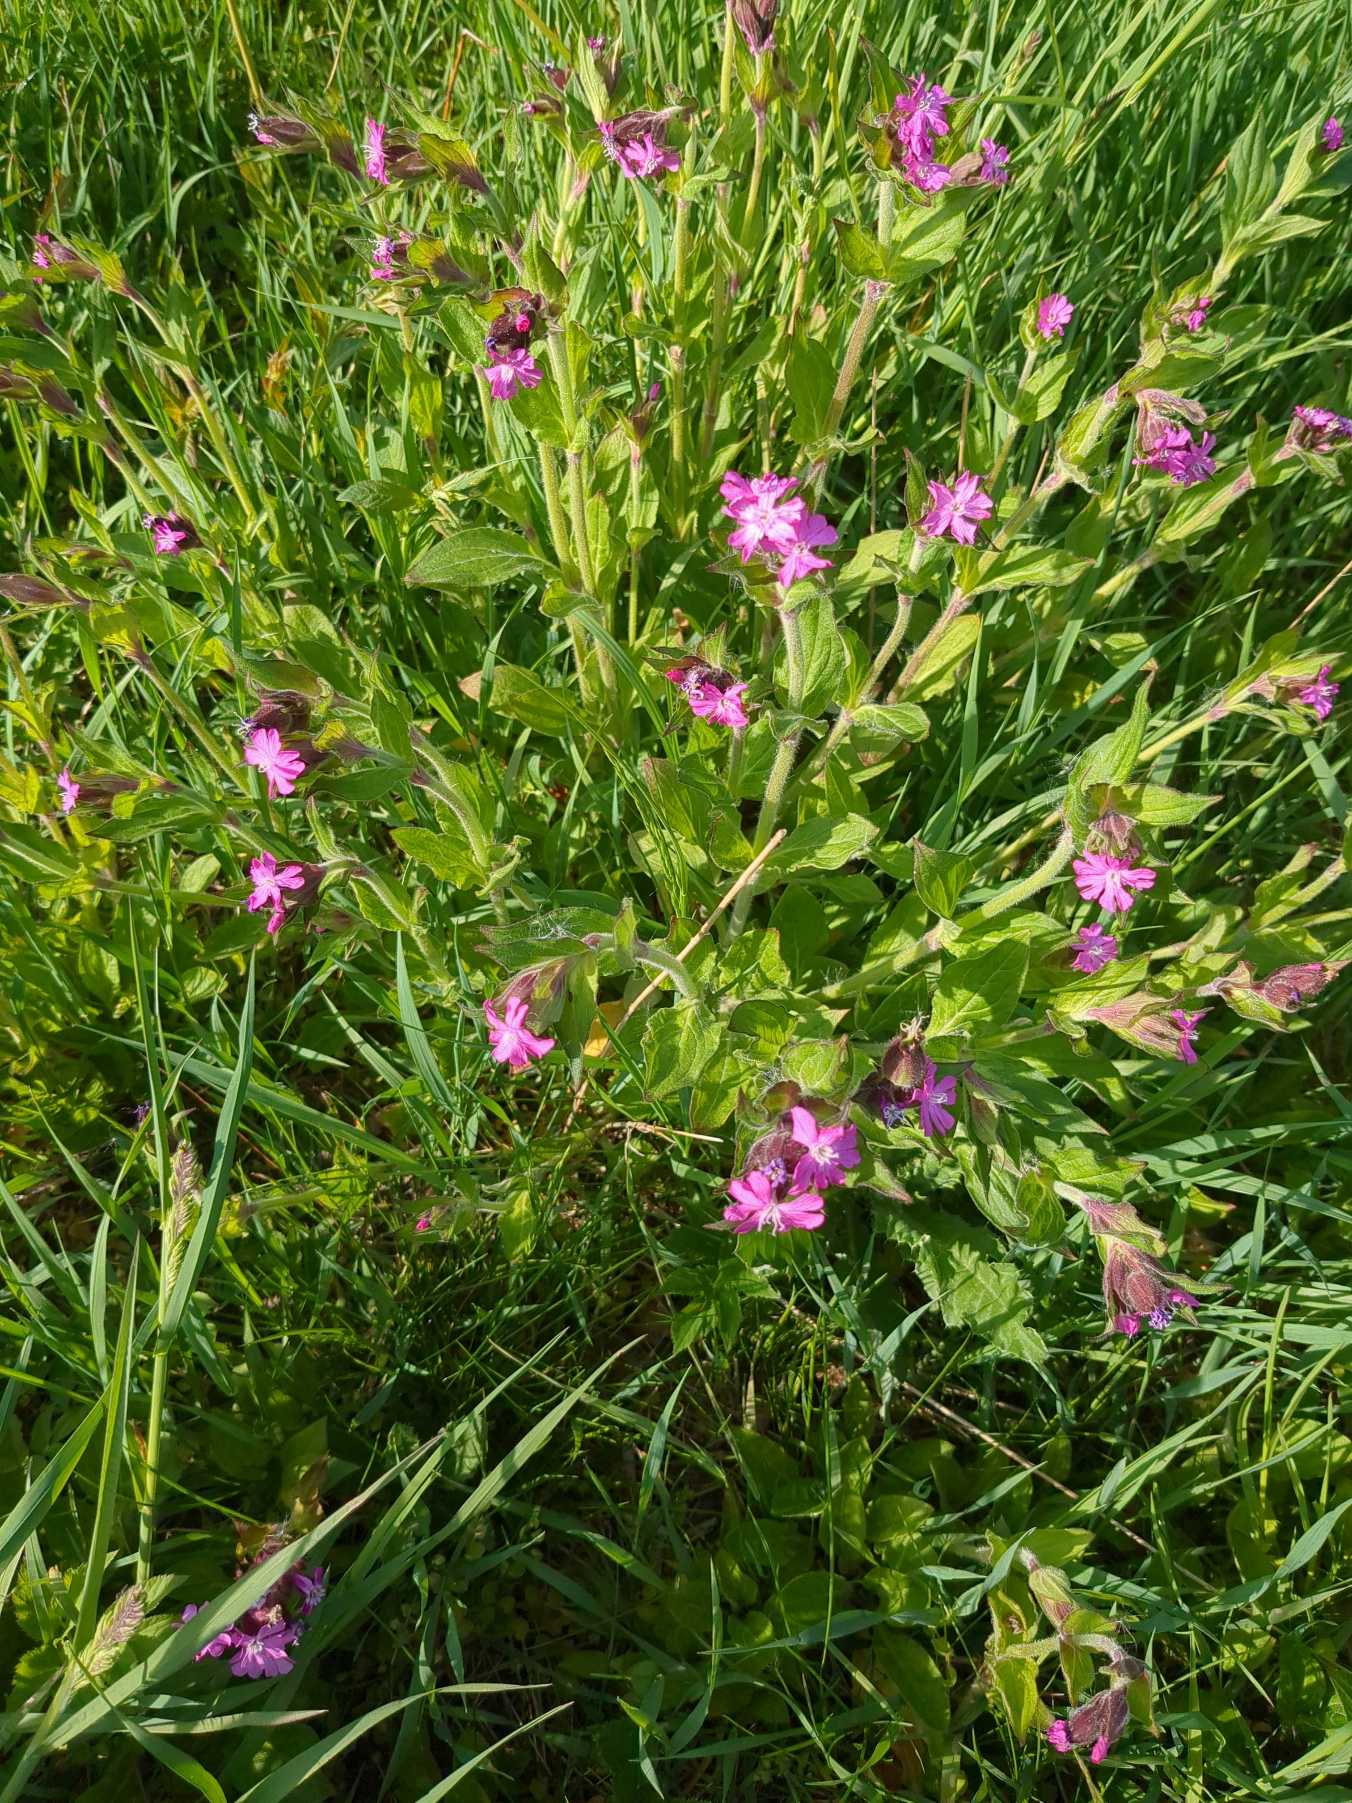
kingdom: Plantae
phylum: Tracheophyta
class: Magnoliopsida
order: Caryophyllales
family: Caryophyllaceae
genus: Silene
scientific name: Silene dioica
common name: Dagpragtstjerne
